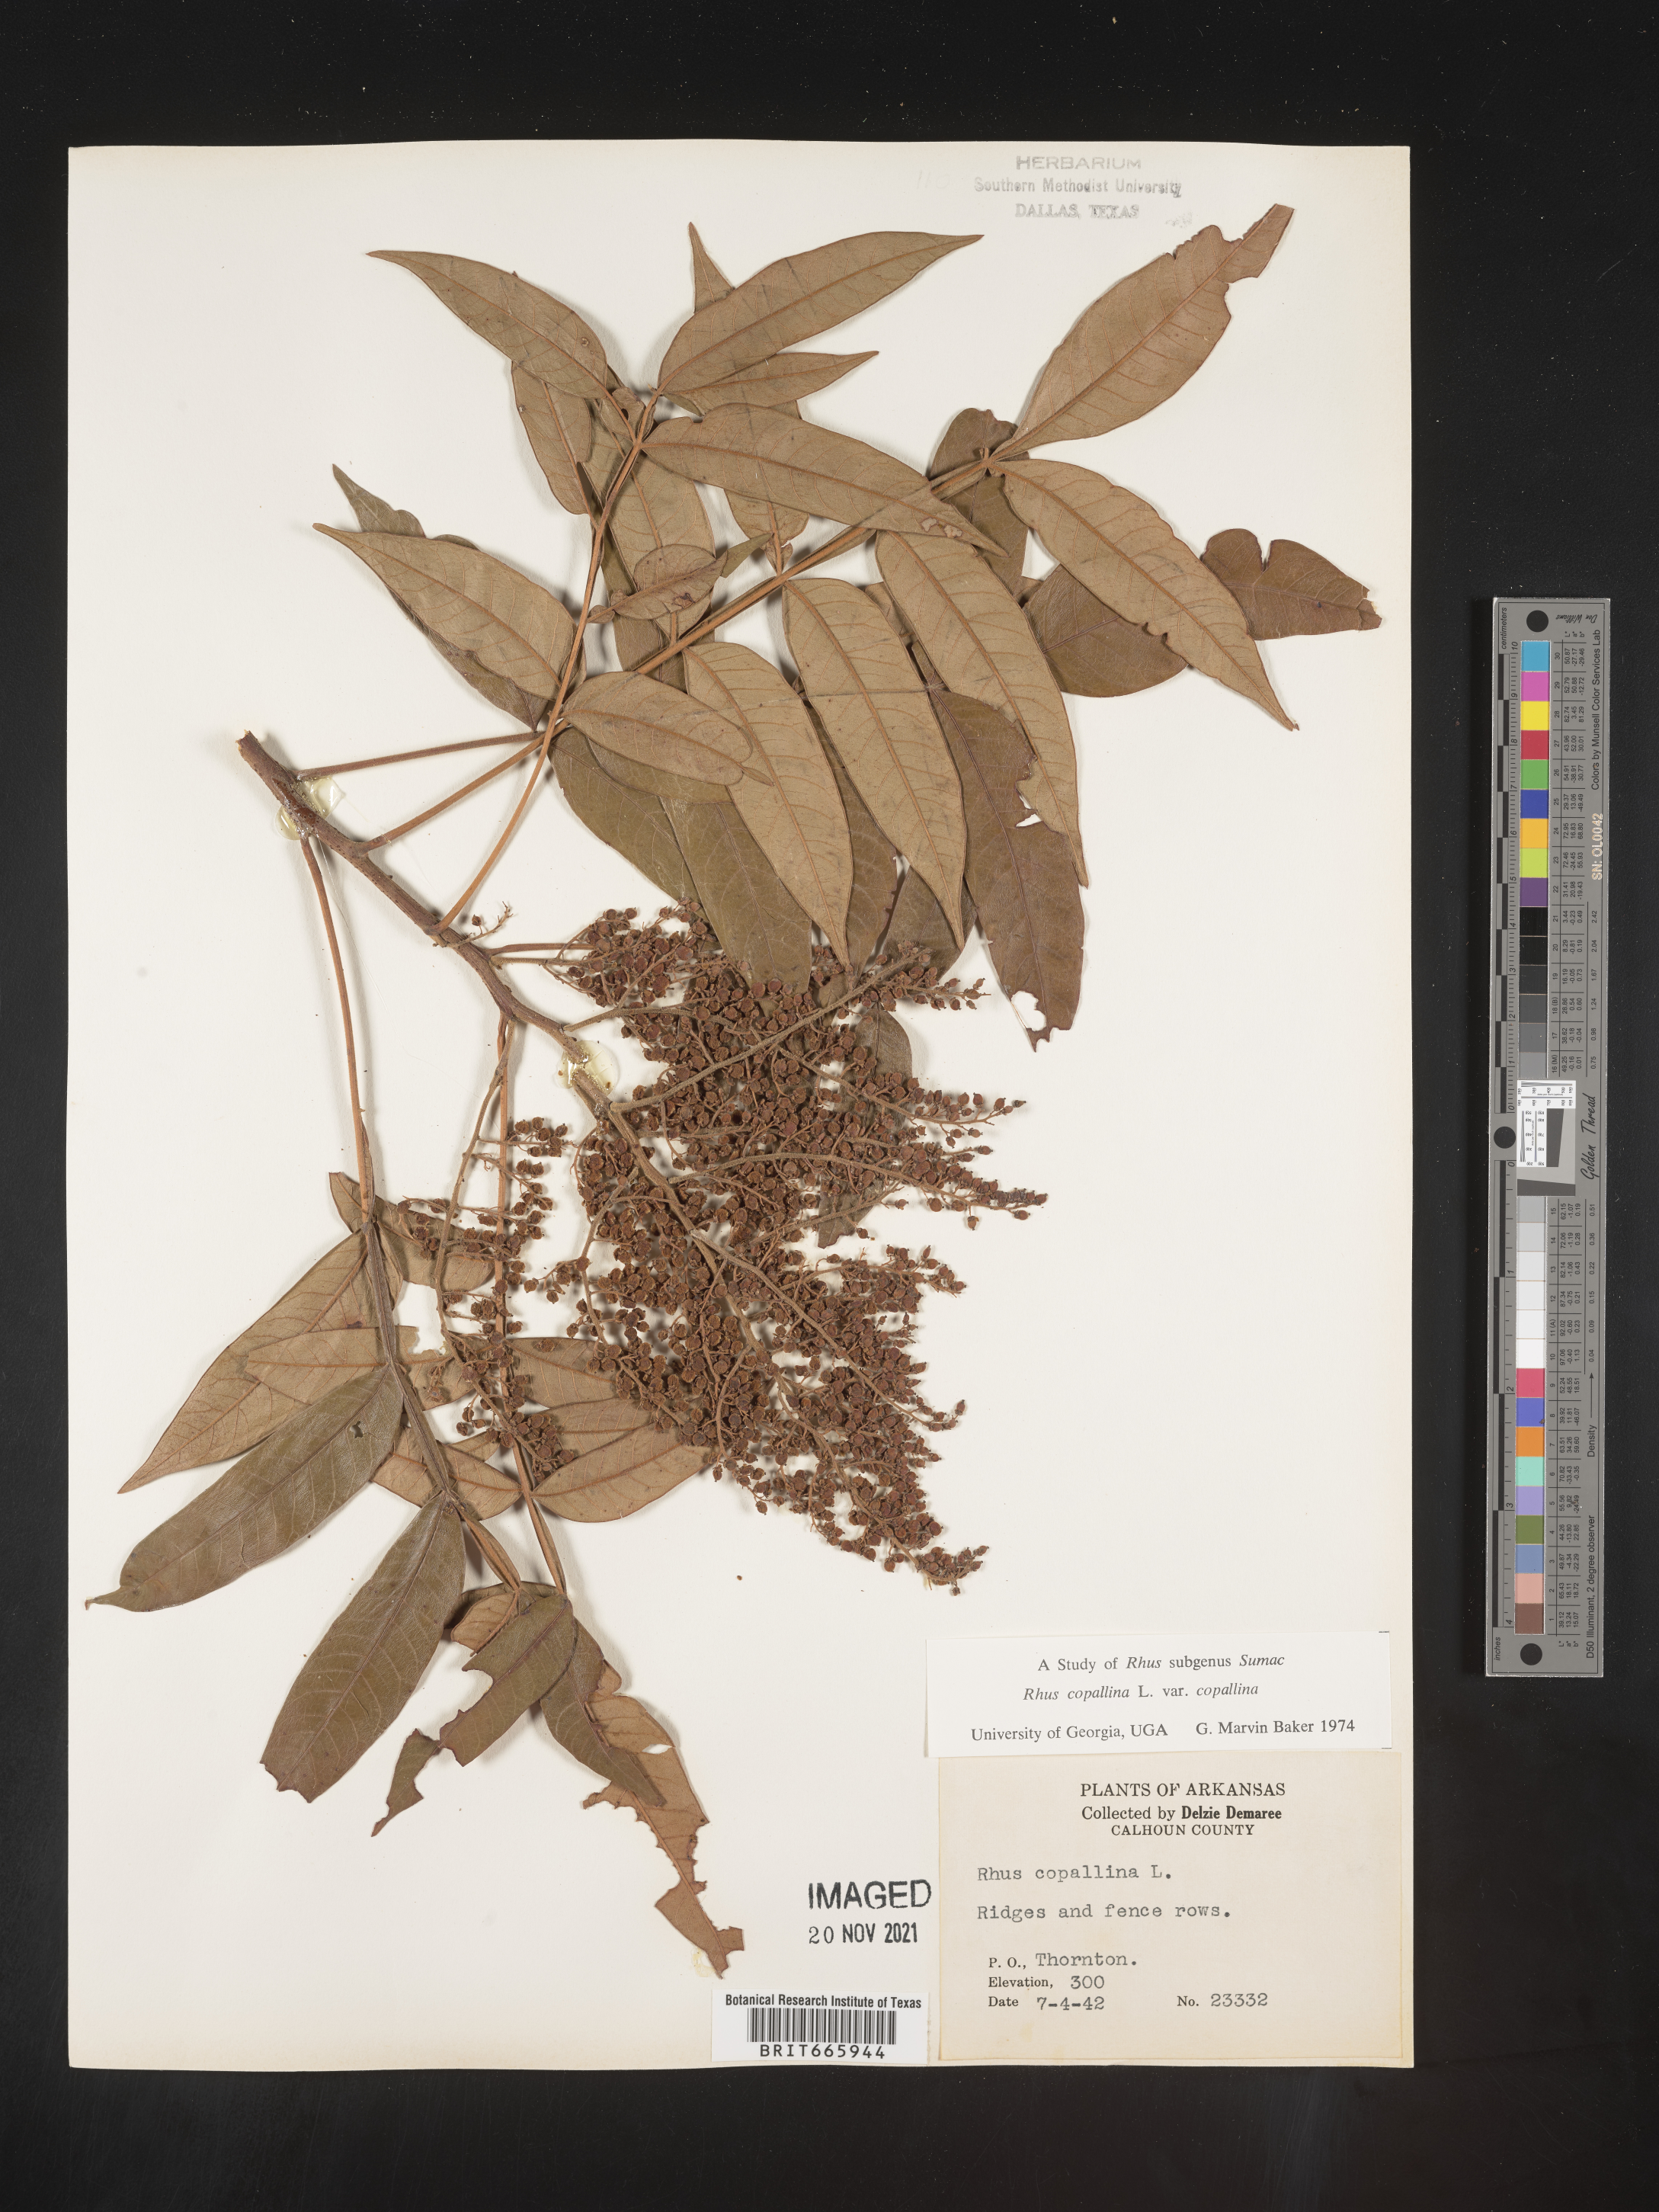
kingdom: Plantae
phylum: Tracheophyta
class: Magnoliopsida
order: Sapindales
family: Anacardiaceae
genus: Rhus
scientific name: Rhus copallina
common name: Shining sumac
